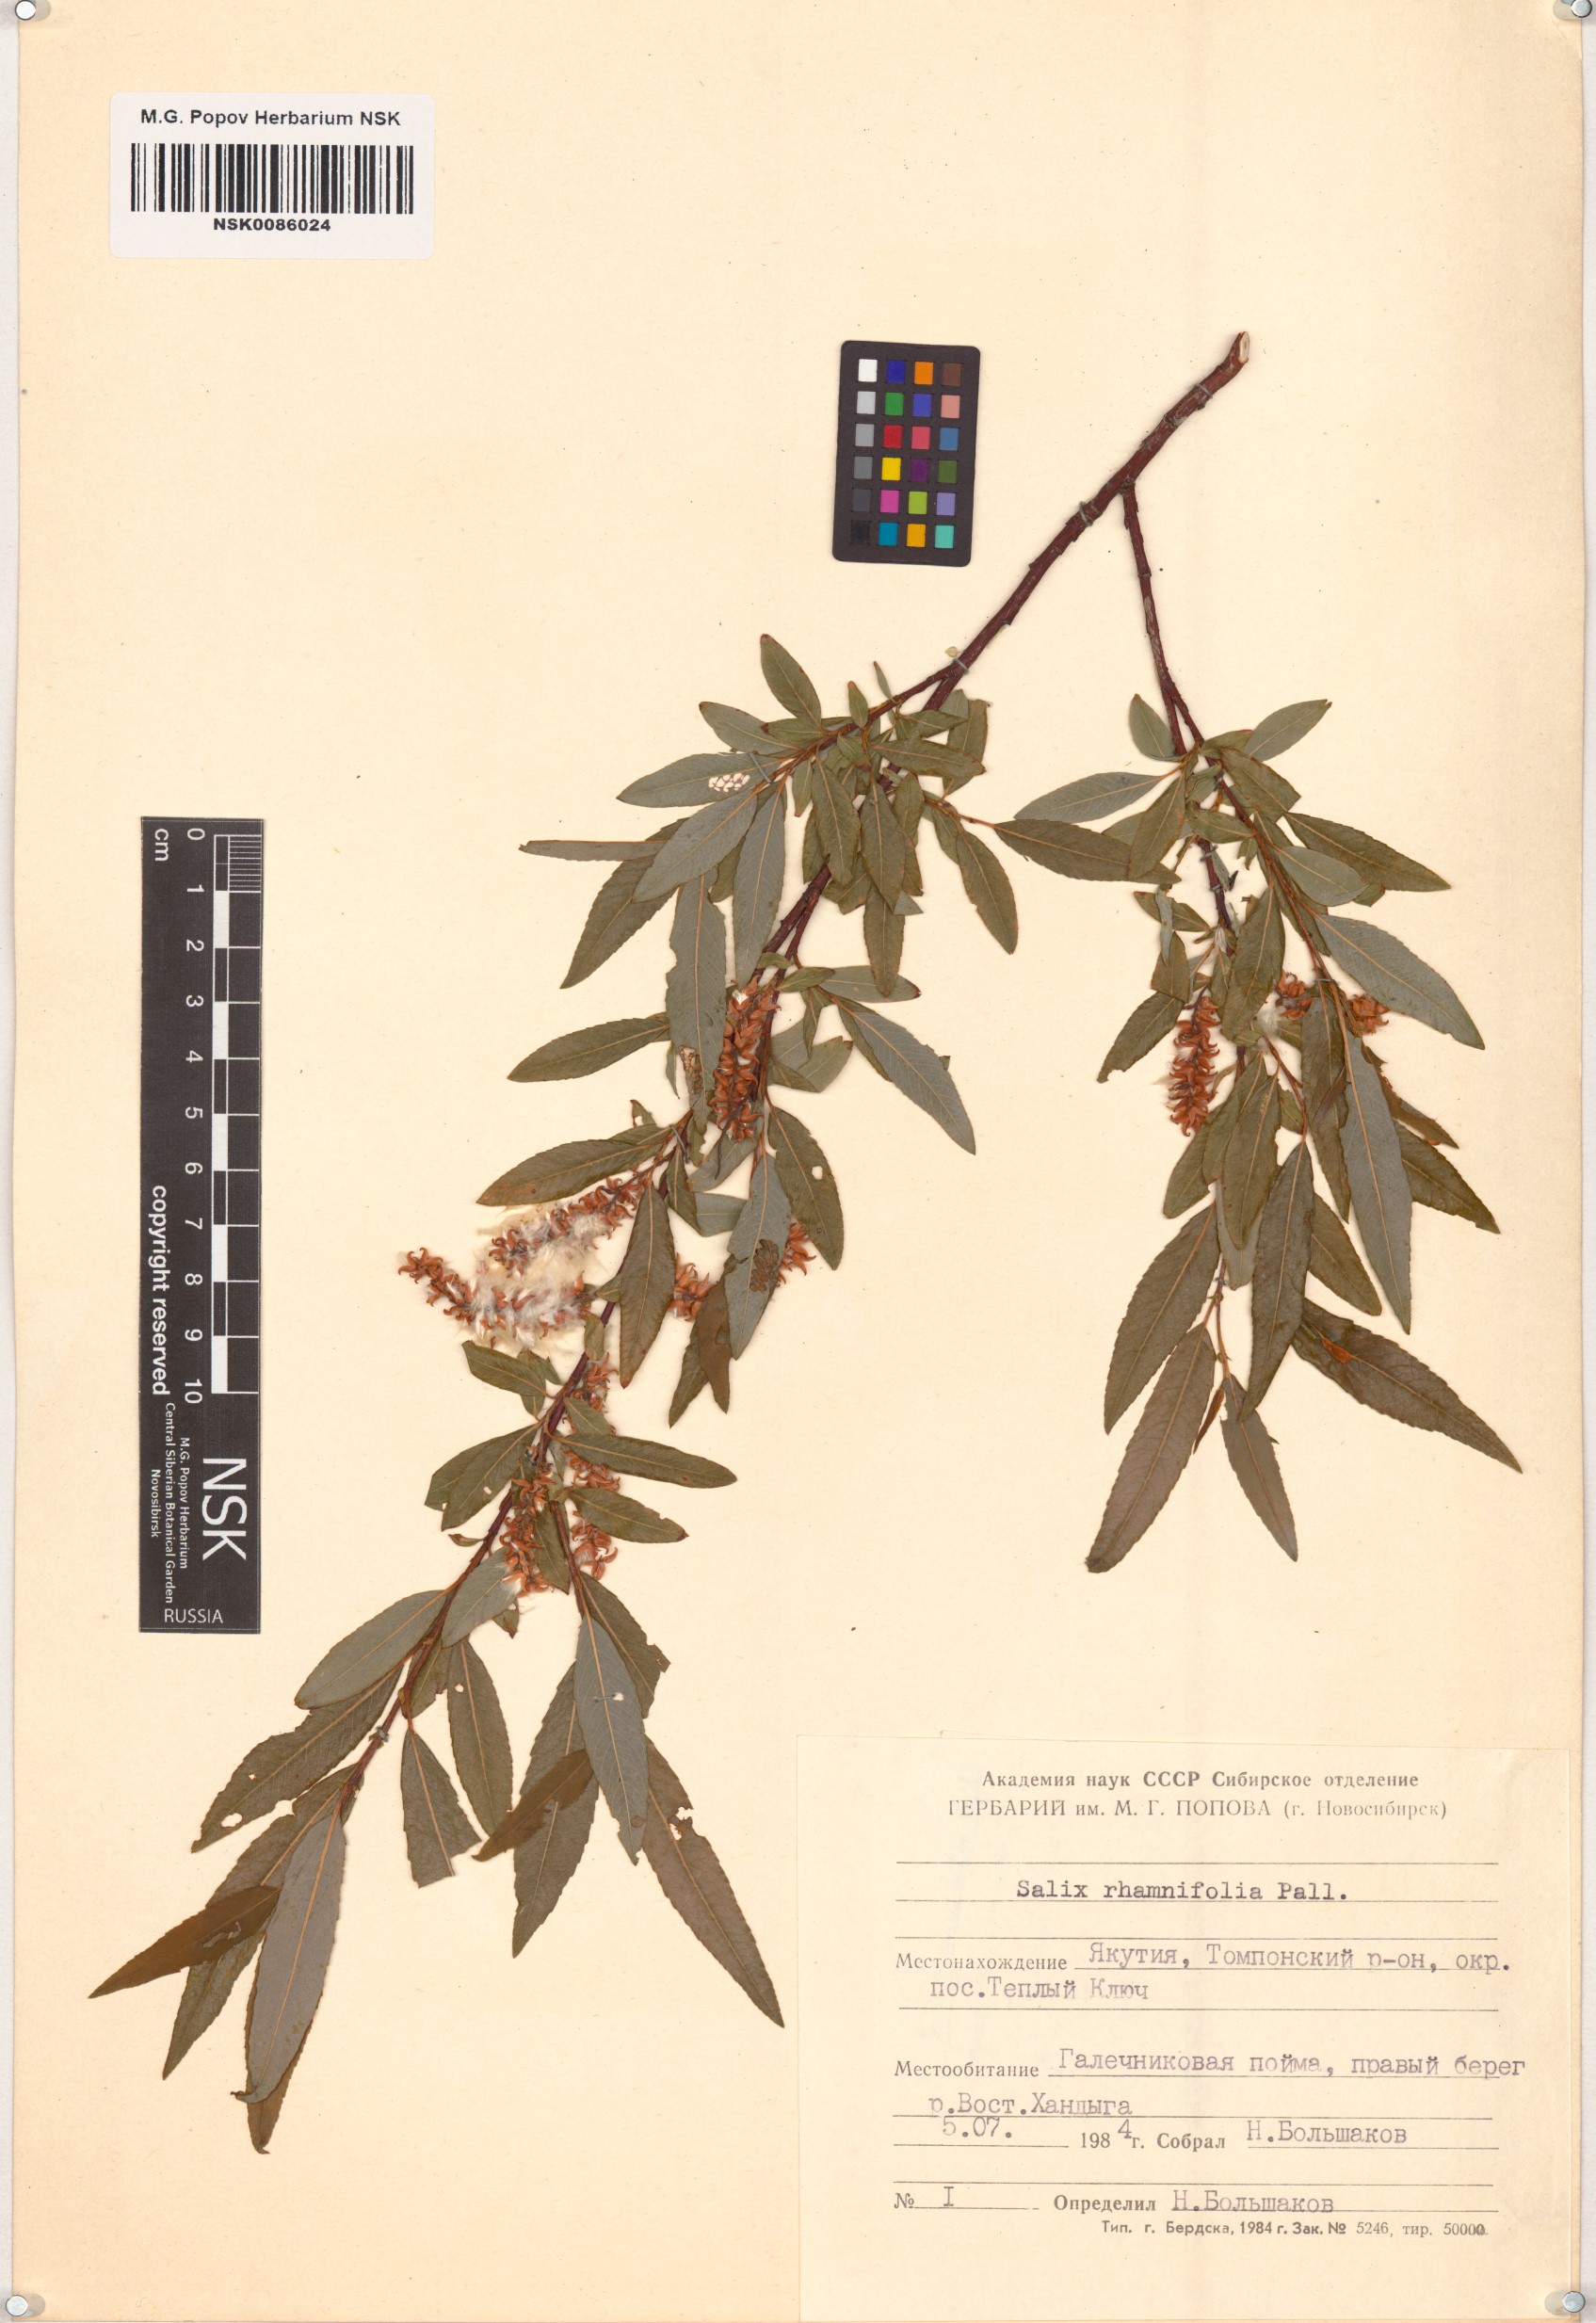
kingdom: Plantae
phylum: Tracheophyta
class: Magnoliopsida
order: Malpighiales
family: Salicaceae
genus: Salix
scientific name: Salix rhamnifolia
